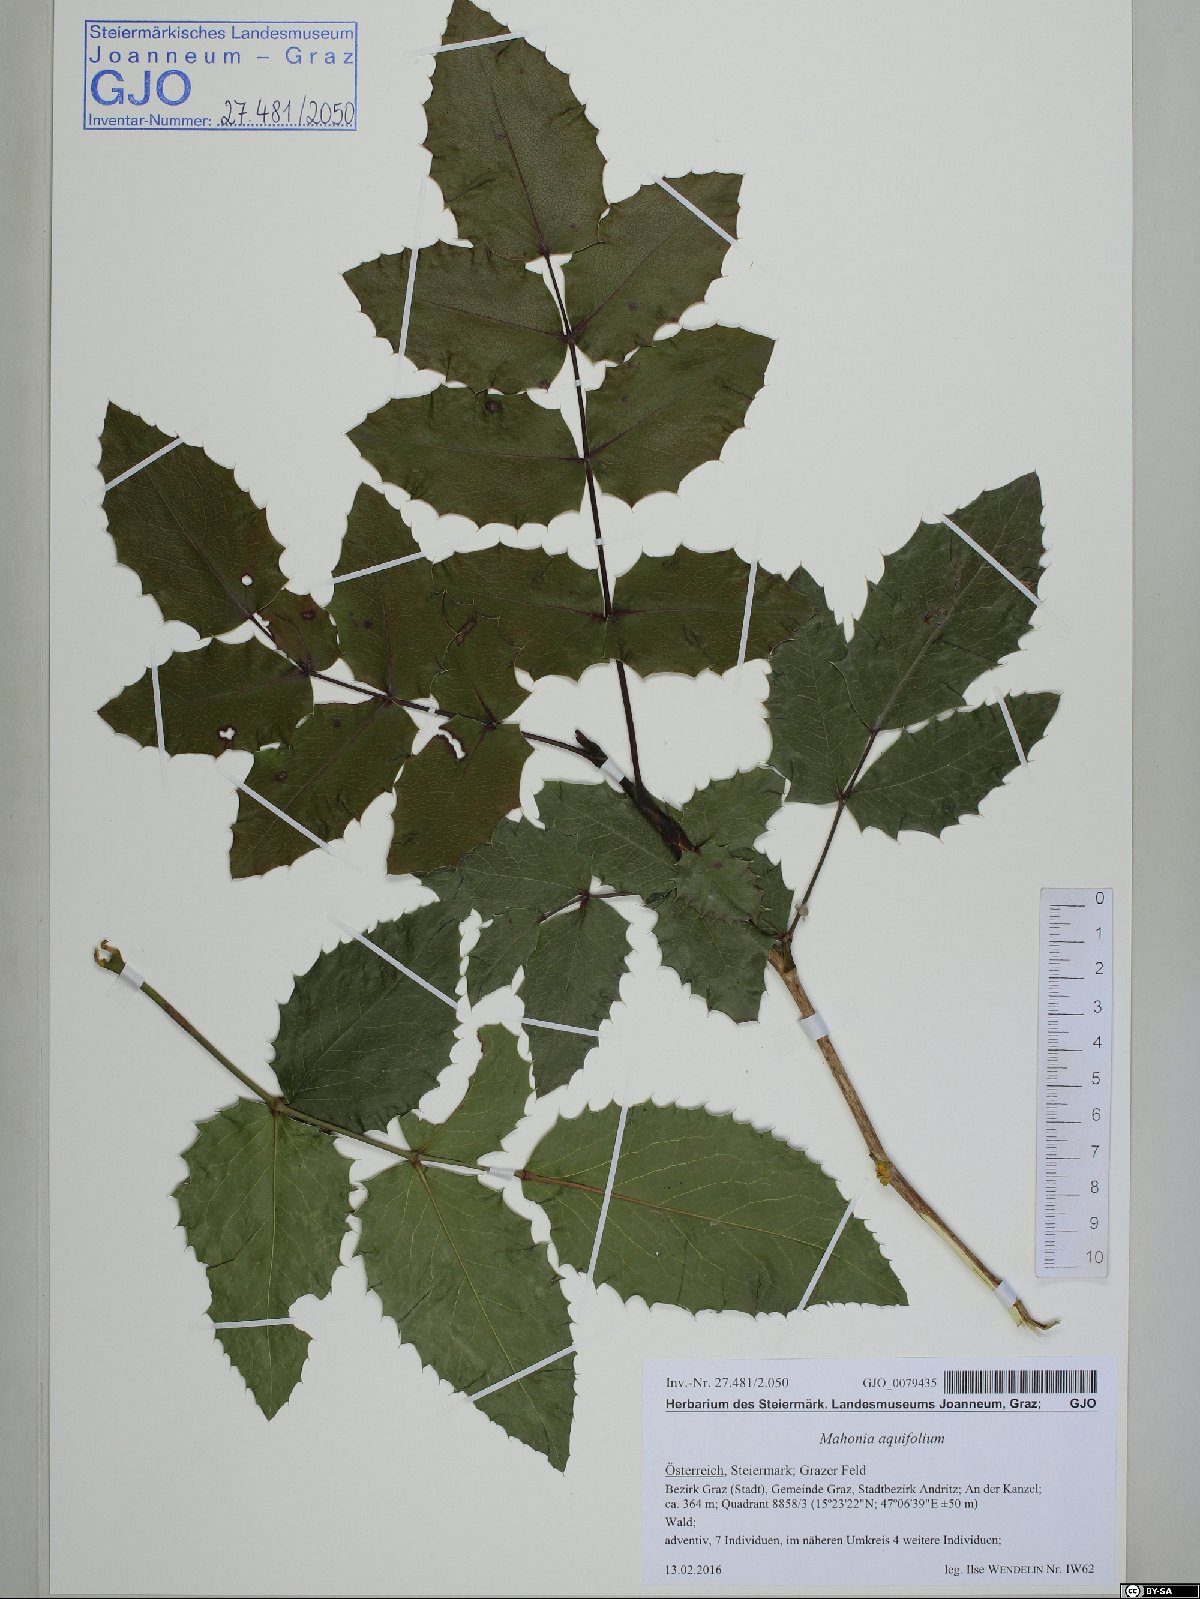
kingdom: Plantae
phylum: Tracheophyta
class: Magnoliopsida
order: Ranunculales
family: Berberidaceae
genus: Mahonia
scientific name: Mahonia aquifolium
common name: Oregon-grape
